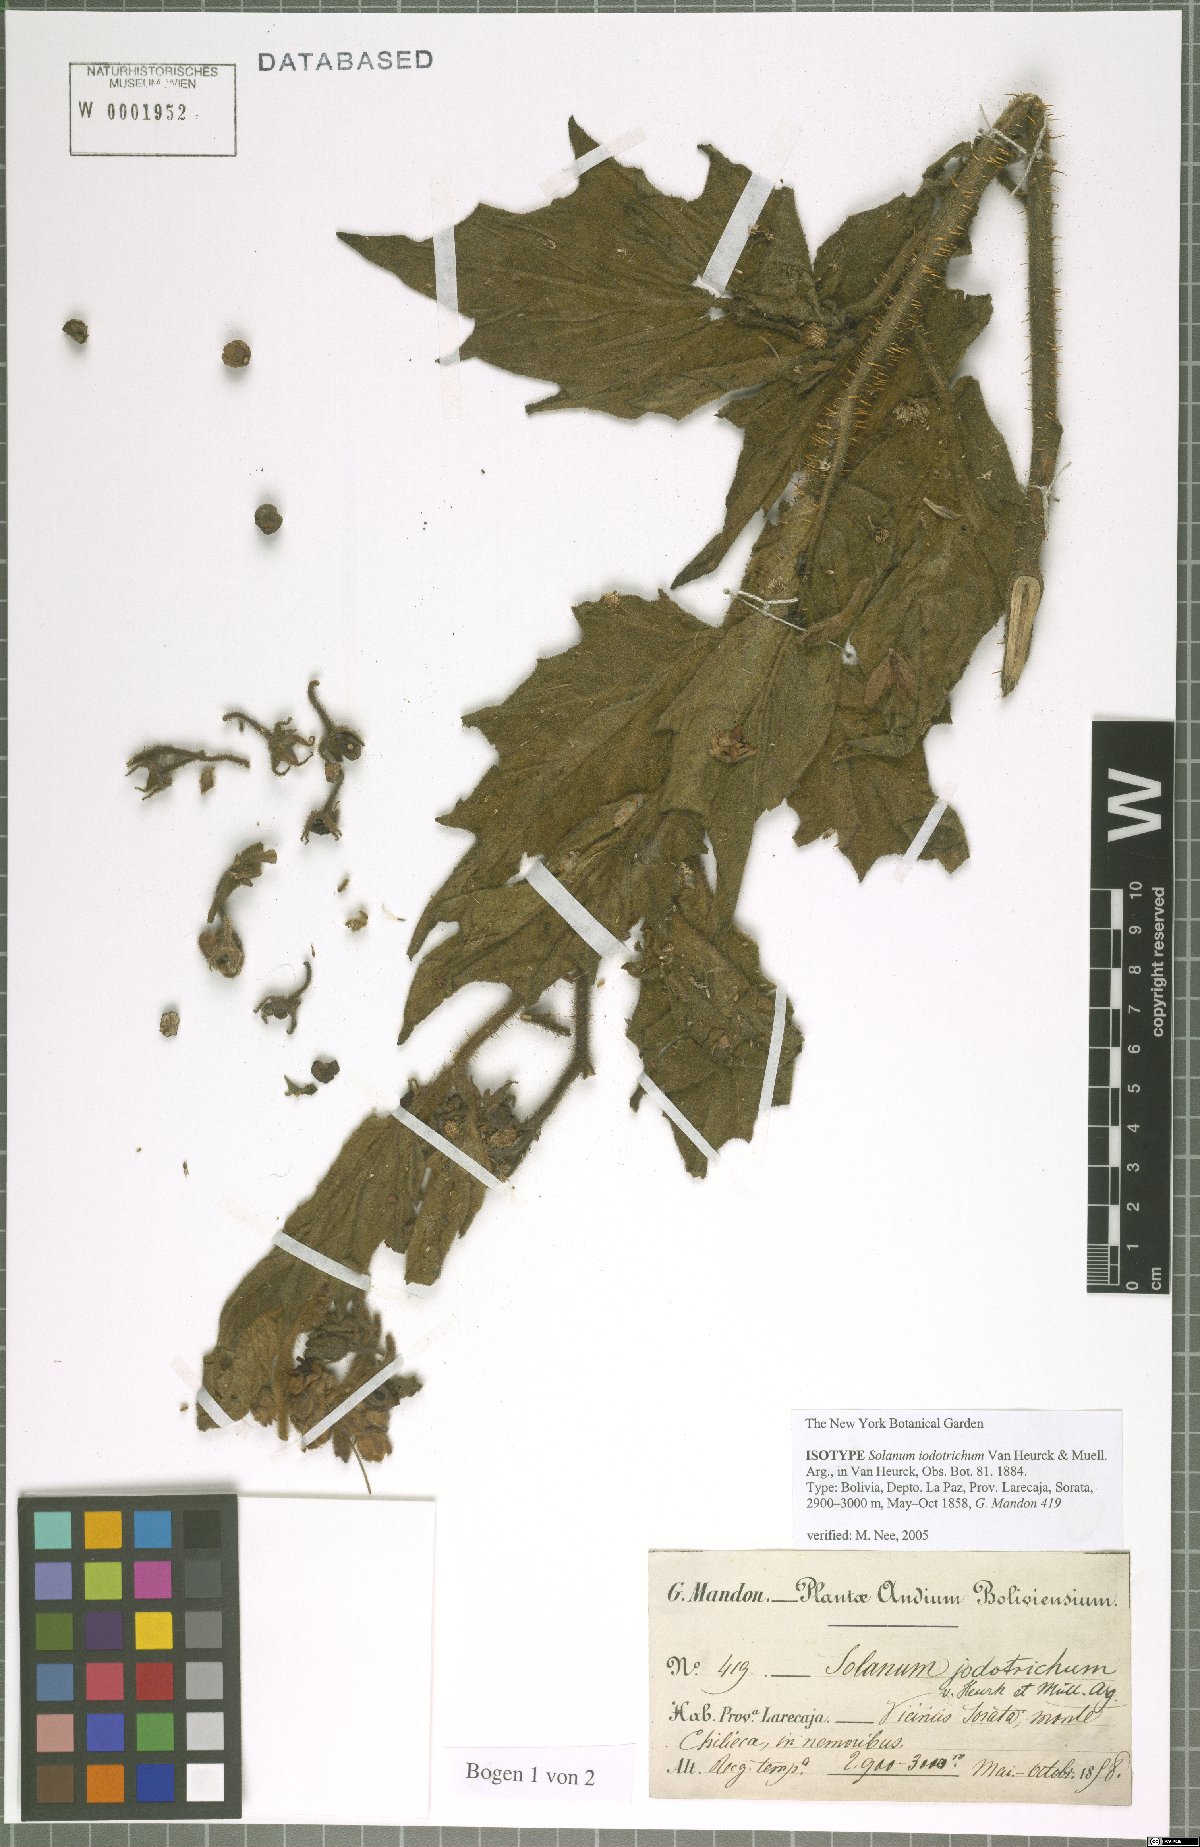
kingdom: Plantae
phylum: Tracheophyta
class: Magnoliopsida
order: Solanales
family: Solanaceae
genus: Solanum
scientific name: Solanum iodotrichum
